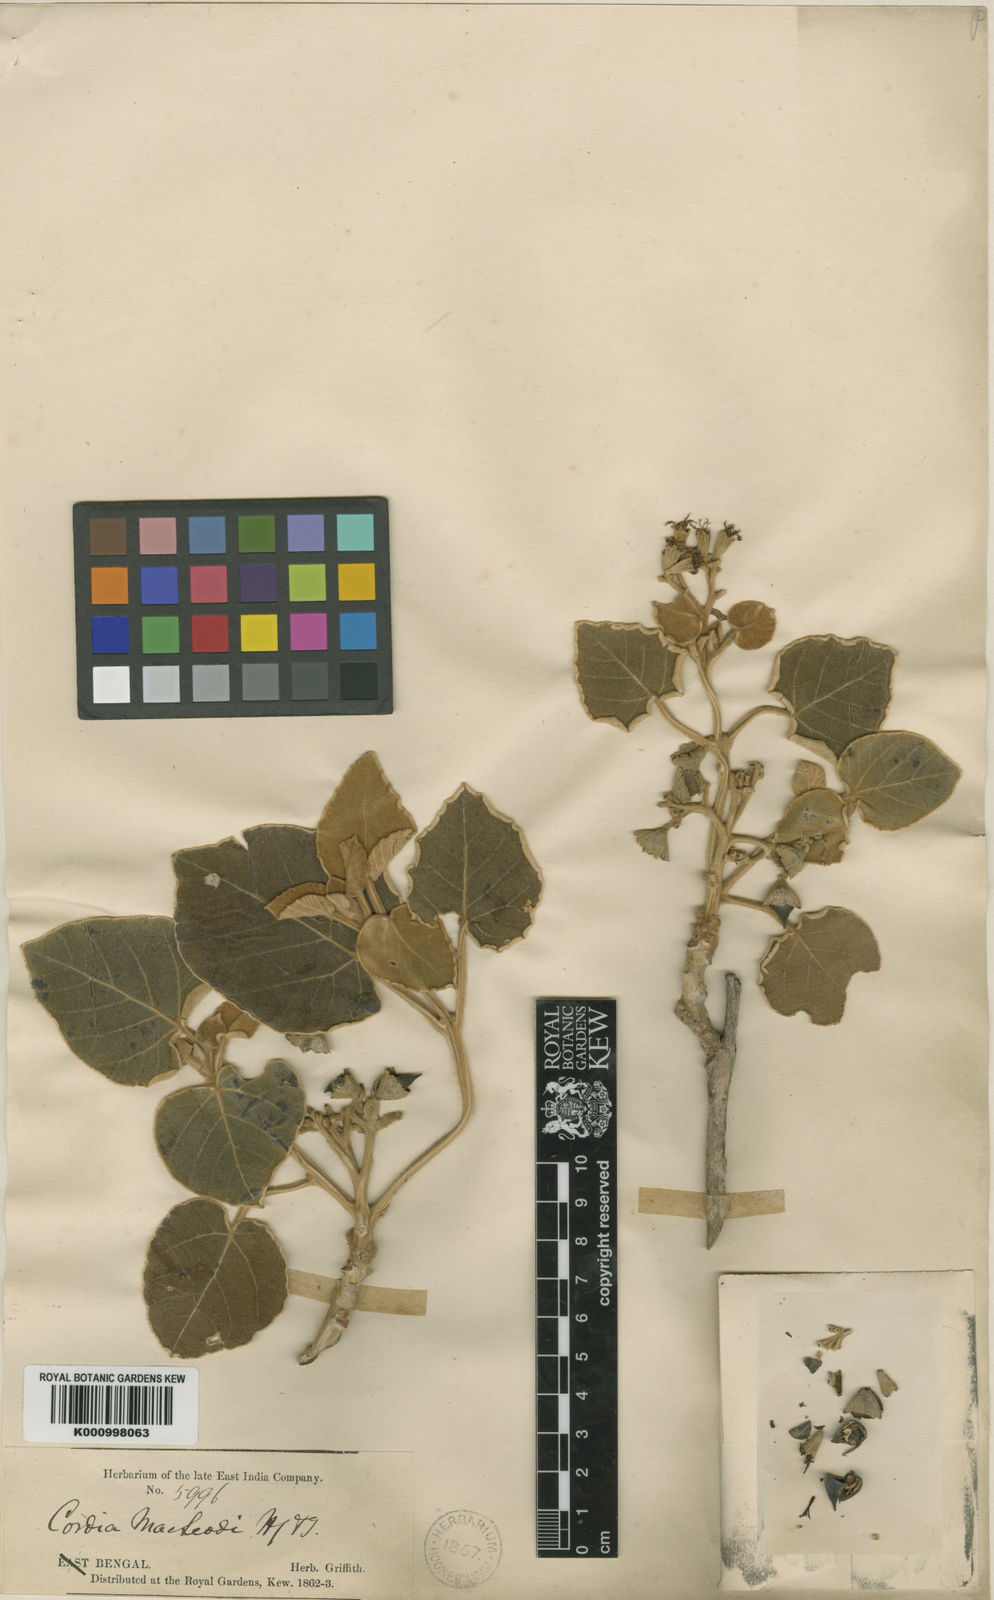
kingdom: Plantae
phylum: Tracheophyta
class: Magnoliopsida
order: Boraginales
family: Cordiaceae
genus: Cordia
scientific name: Cordia macleodii
